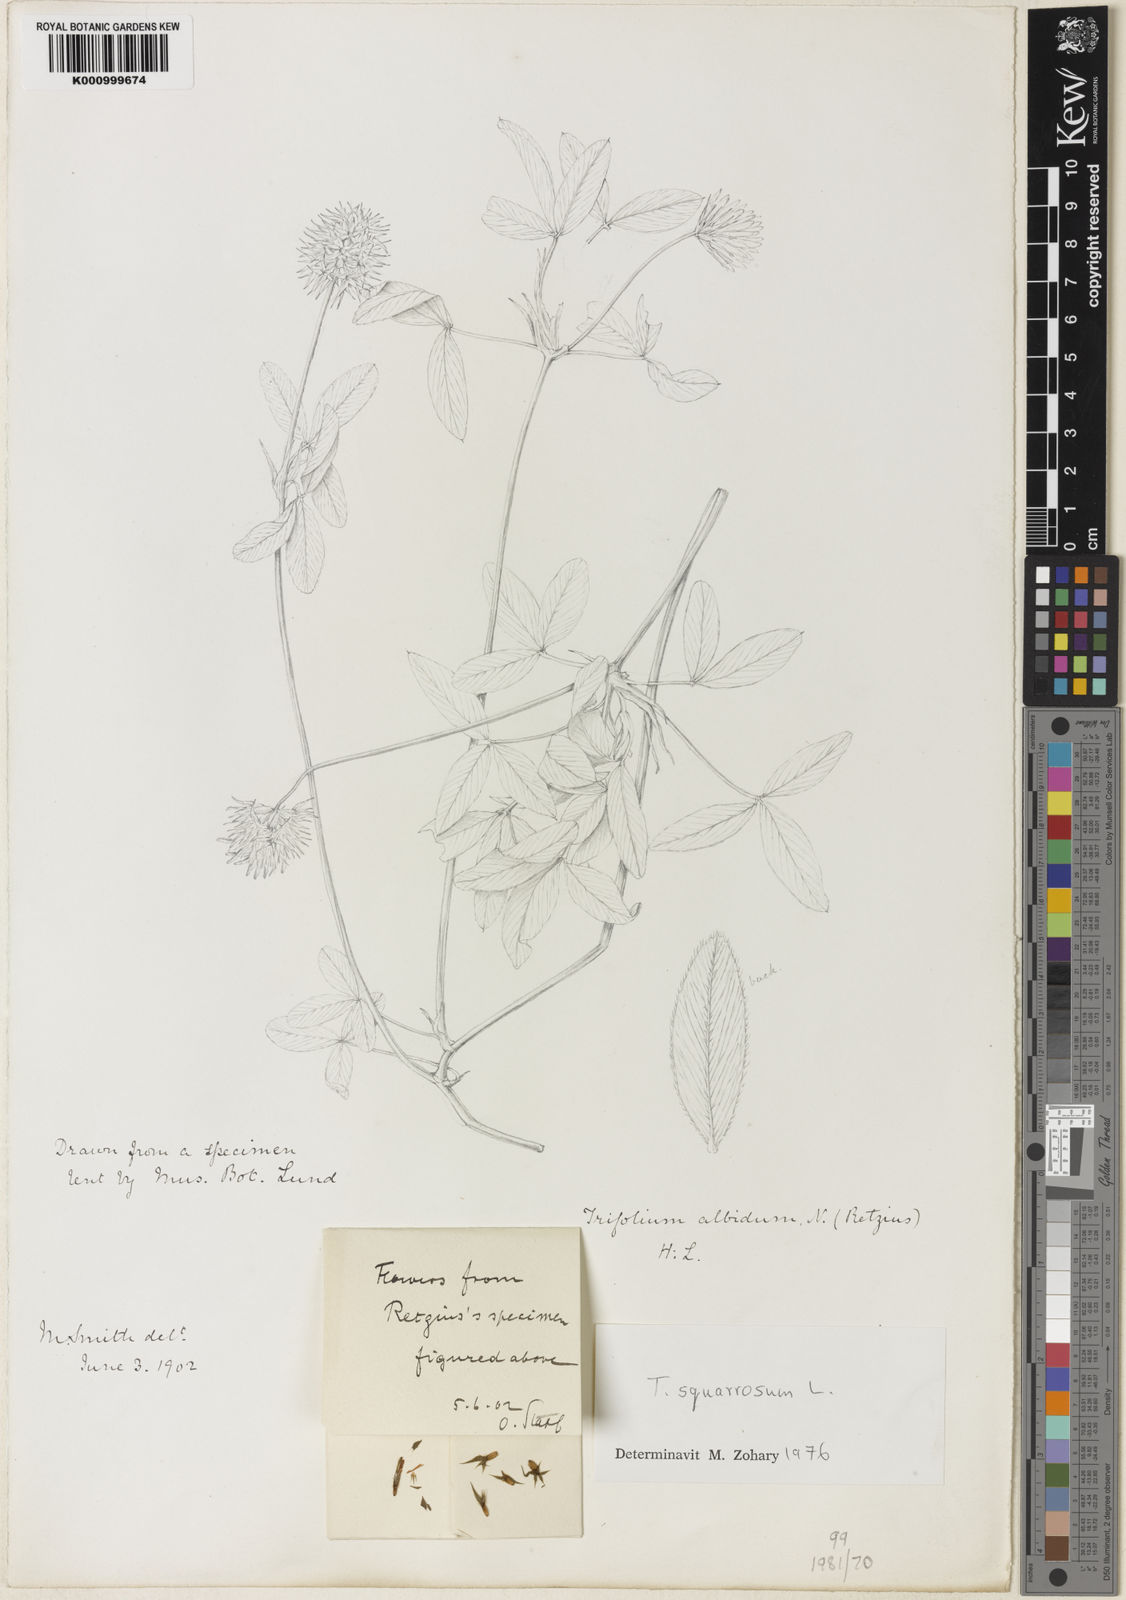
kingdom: Plantae
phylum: Tracheophyta
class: Magnoliopsida
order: Fabales
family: Fabaceae
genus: Trifolium
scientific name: Trifolium squarrosum
